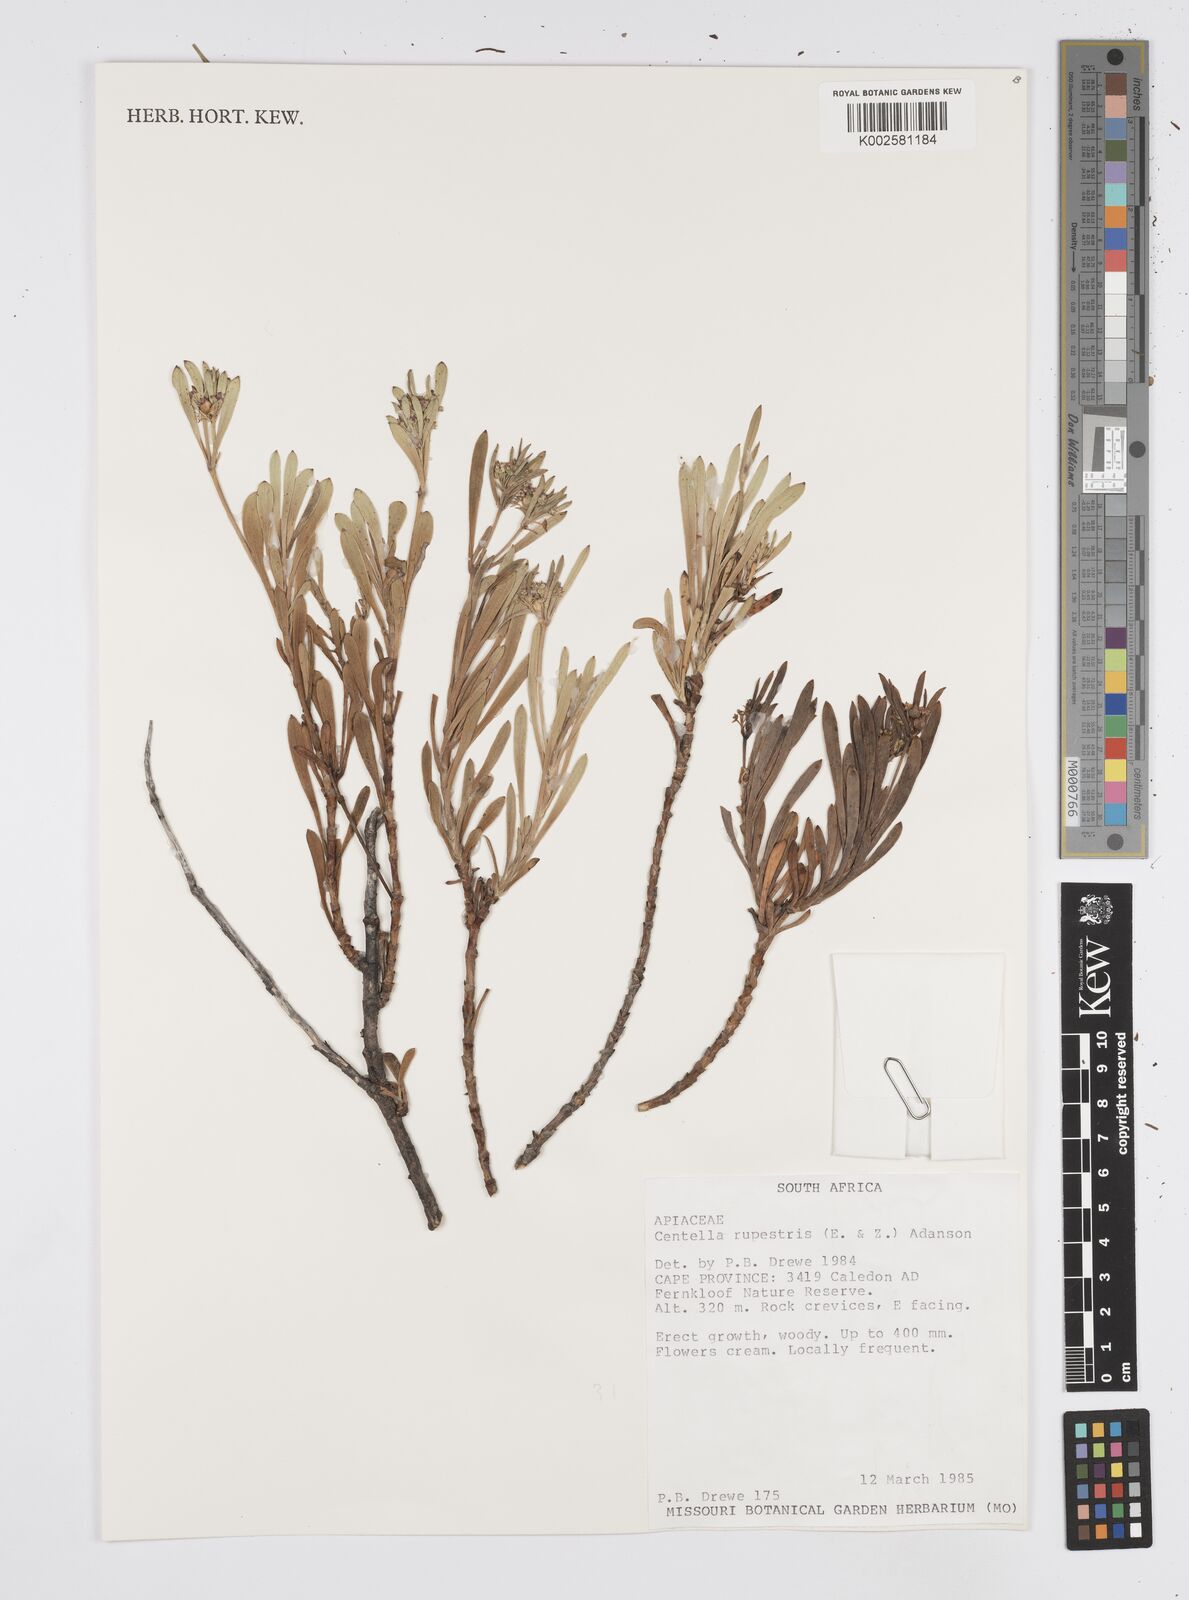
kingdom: Plantae
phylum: Tracheophyta
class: Magnoliopsida
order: Apiales
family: Apiaceae
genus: Centella
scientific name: Centella rupestris
